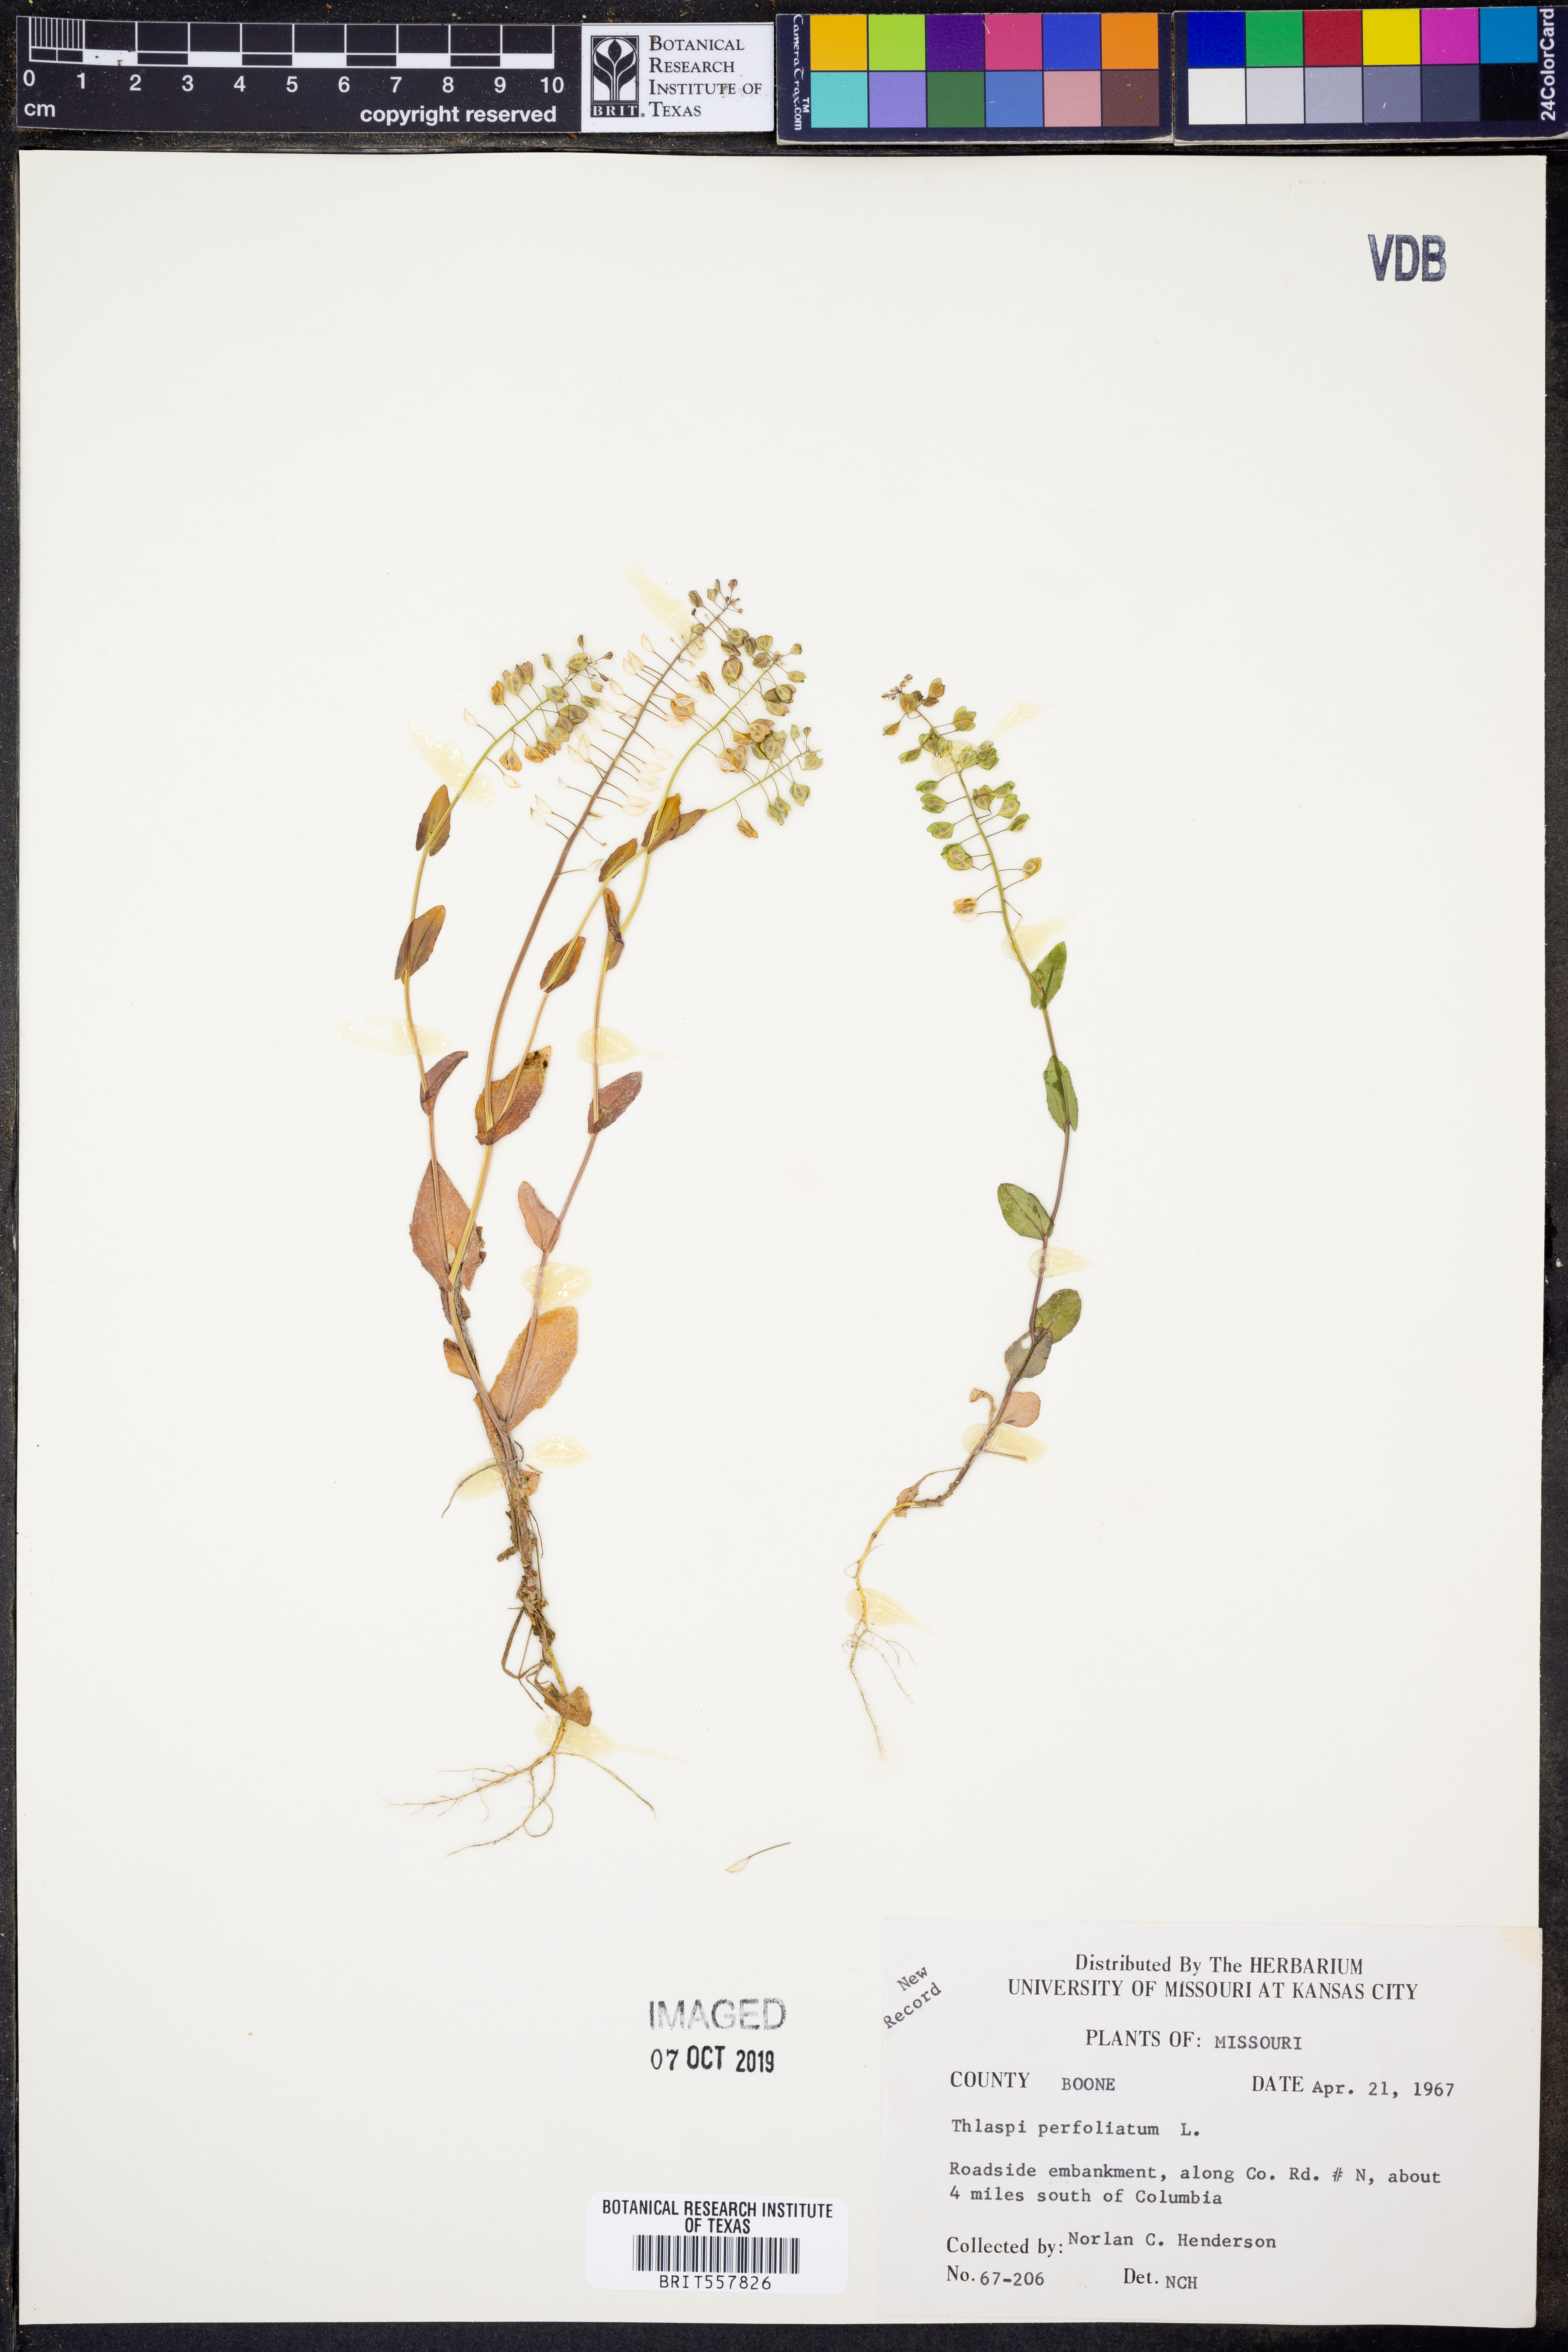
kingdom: Plantae
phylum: Tracheophyta
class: Magnoliopsida
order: Brassicales
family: Brassicaceae
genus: Noccaea
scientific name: Noccaea perfoliata
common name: Perfoliate pennycress
